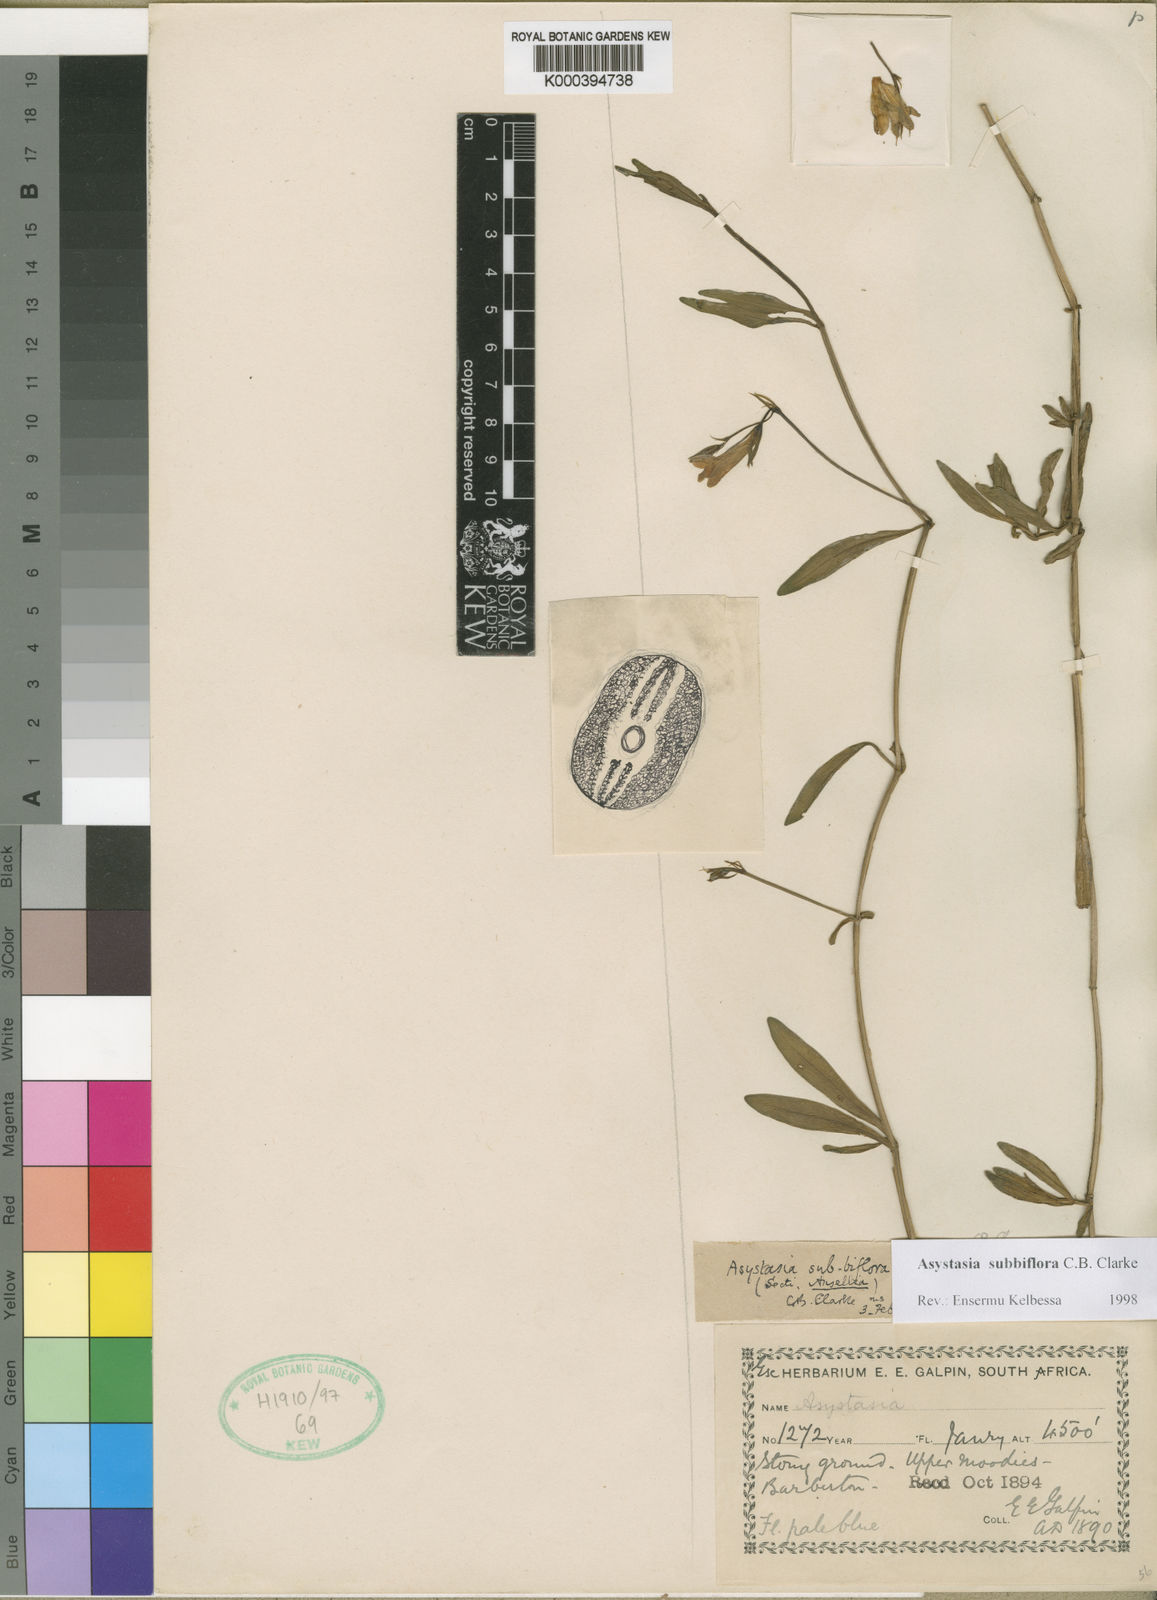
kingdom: Plantae
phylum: Tracheophyta
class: Magnoliopsida
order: Lamiales
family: Acanthaceae
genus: Asystasia
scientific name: Asystasia subbiflora
